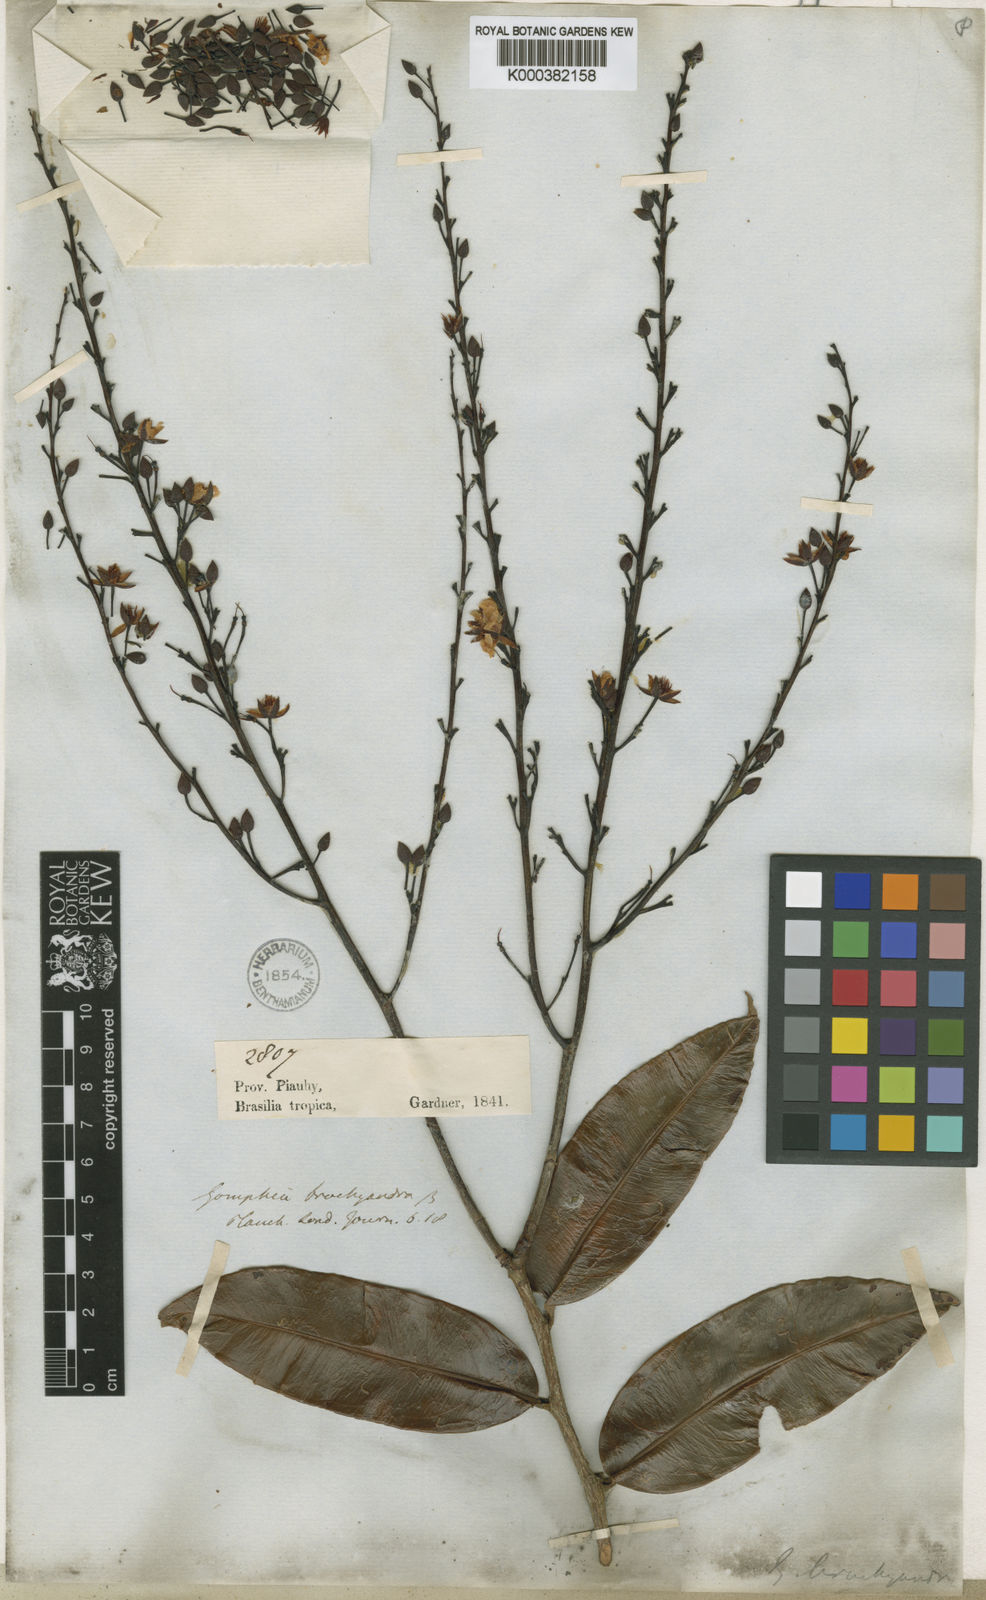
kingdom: Plantae
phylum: Tracheophyta
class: Magnoliopsida
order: Malpighiales
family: Ochnaceae
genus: Ouratea
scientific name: Ouratea pilinervosa
